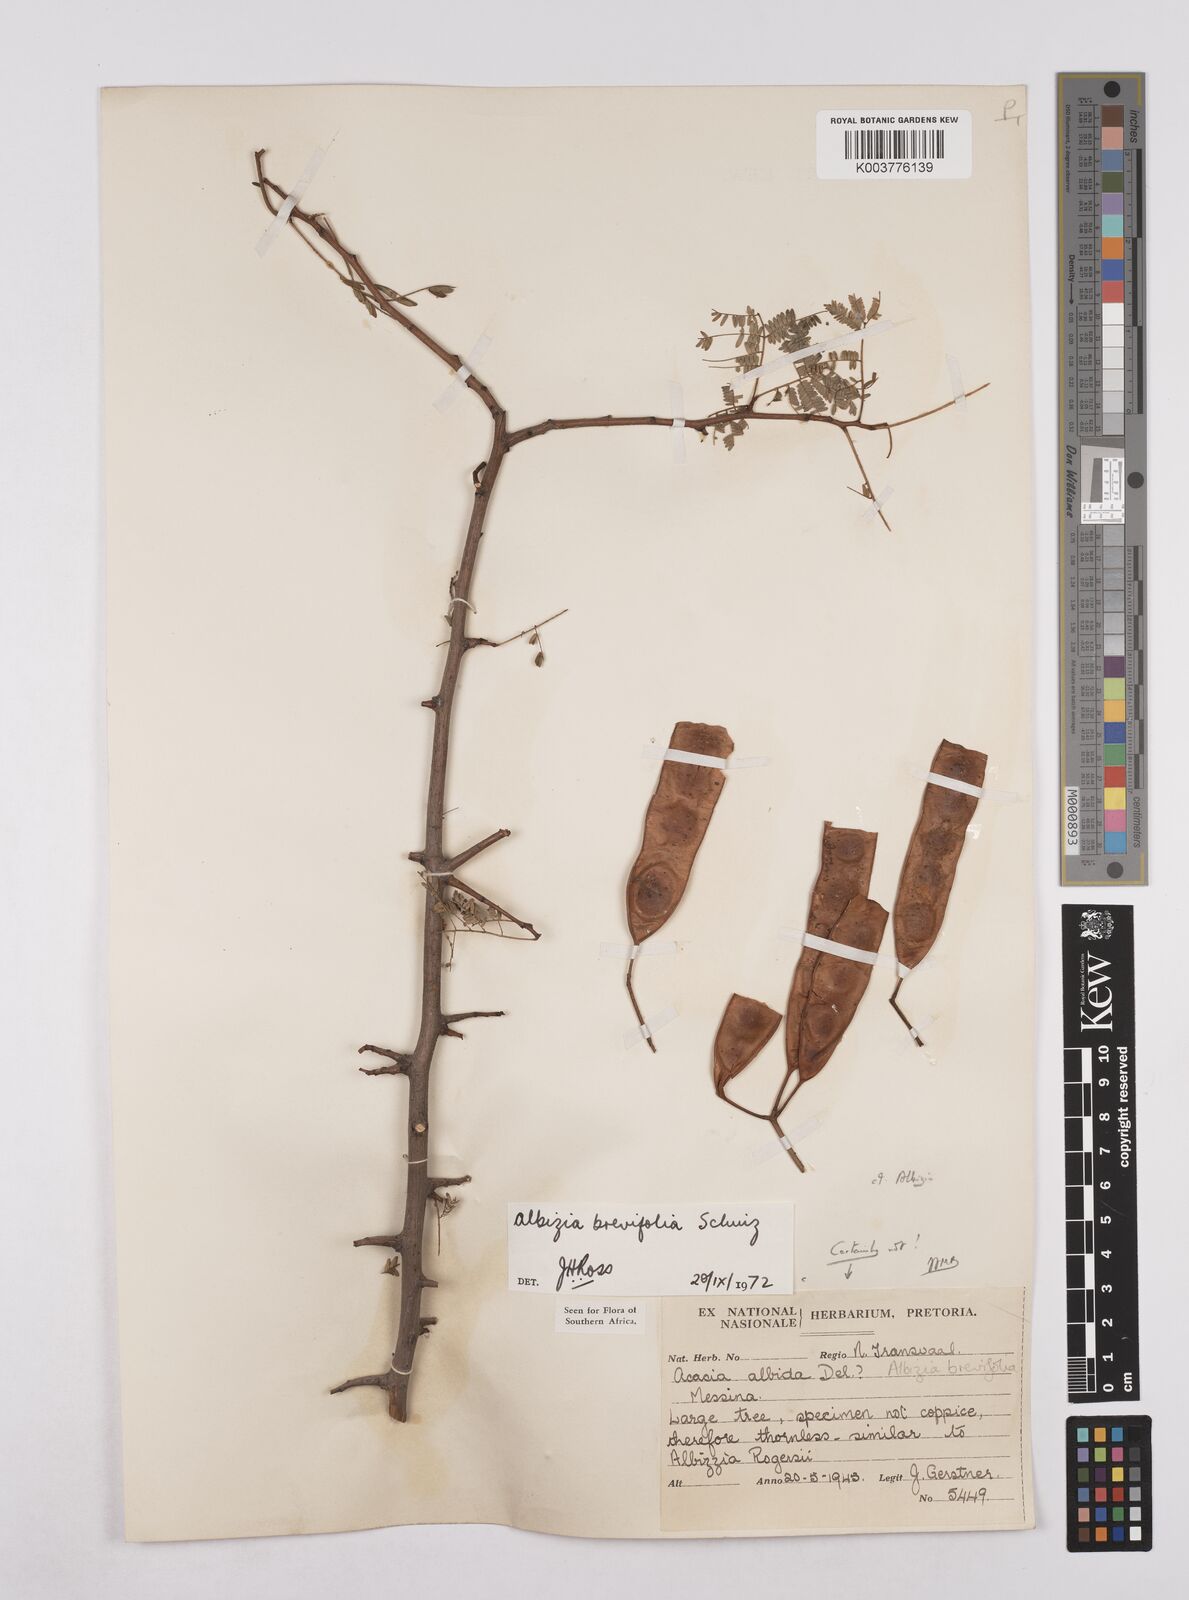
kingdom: Plantae
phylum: Tracheophyta
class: Magnoliopsida
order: Fabales
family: Fabaceae
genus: Albizia
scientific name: Albizia brevifolia
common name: Rock false-thorn
